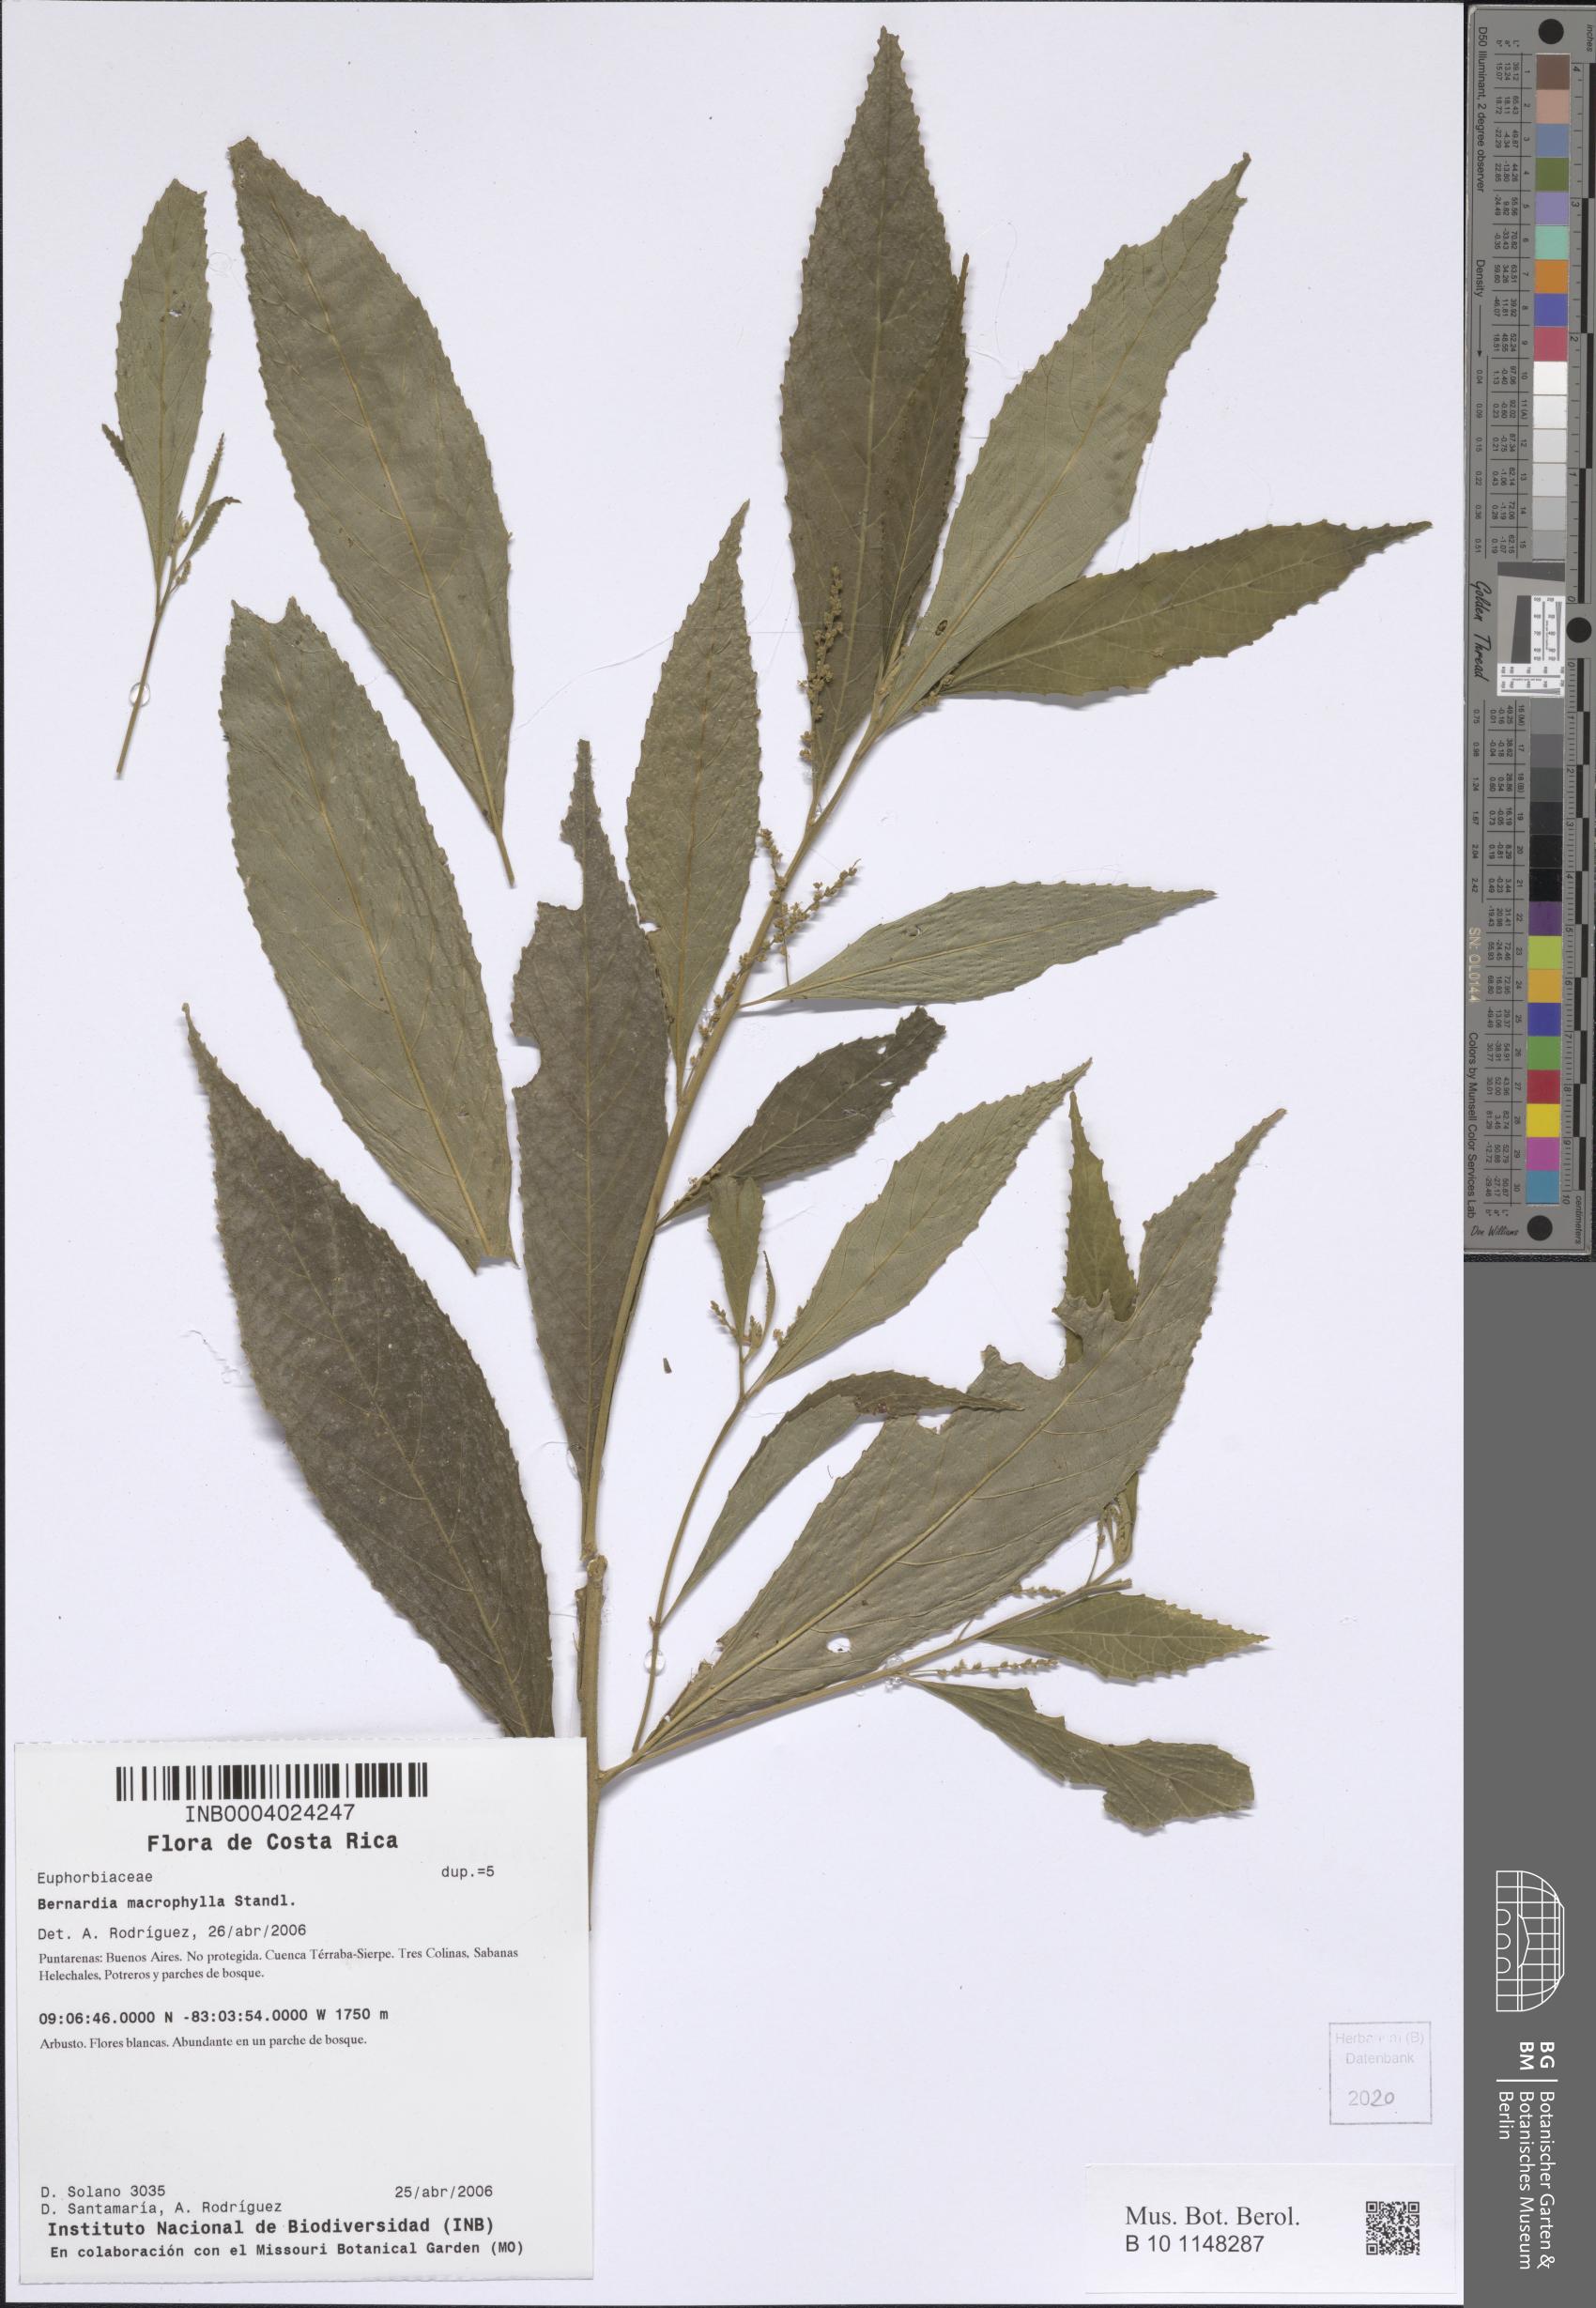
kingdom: Plantae
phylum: Tracheophyta
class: Magnoliopsida
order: Malpighiales
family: Euphorbiaceae
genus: Bernardia
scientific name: Bernardia macrophylla
